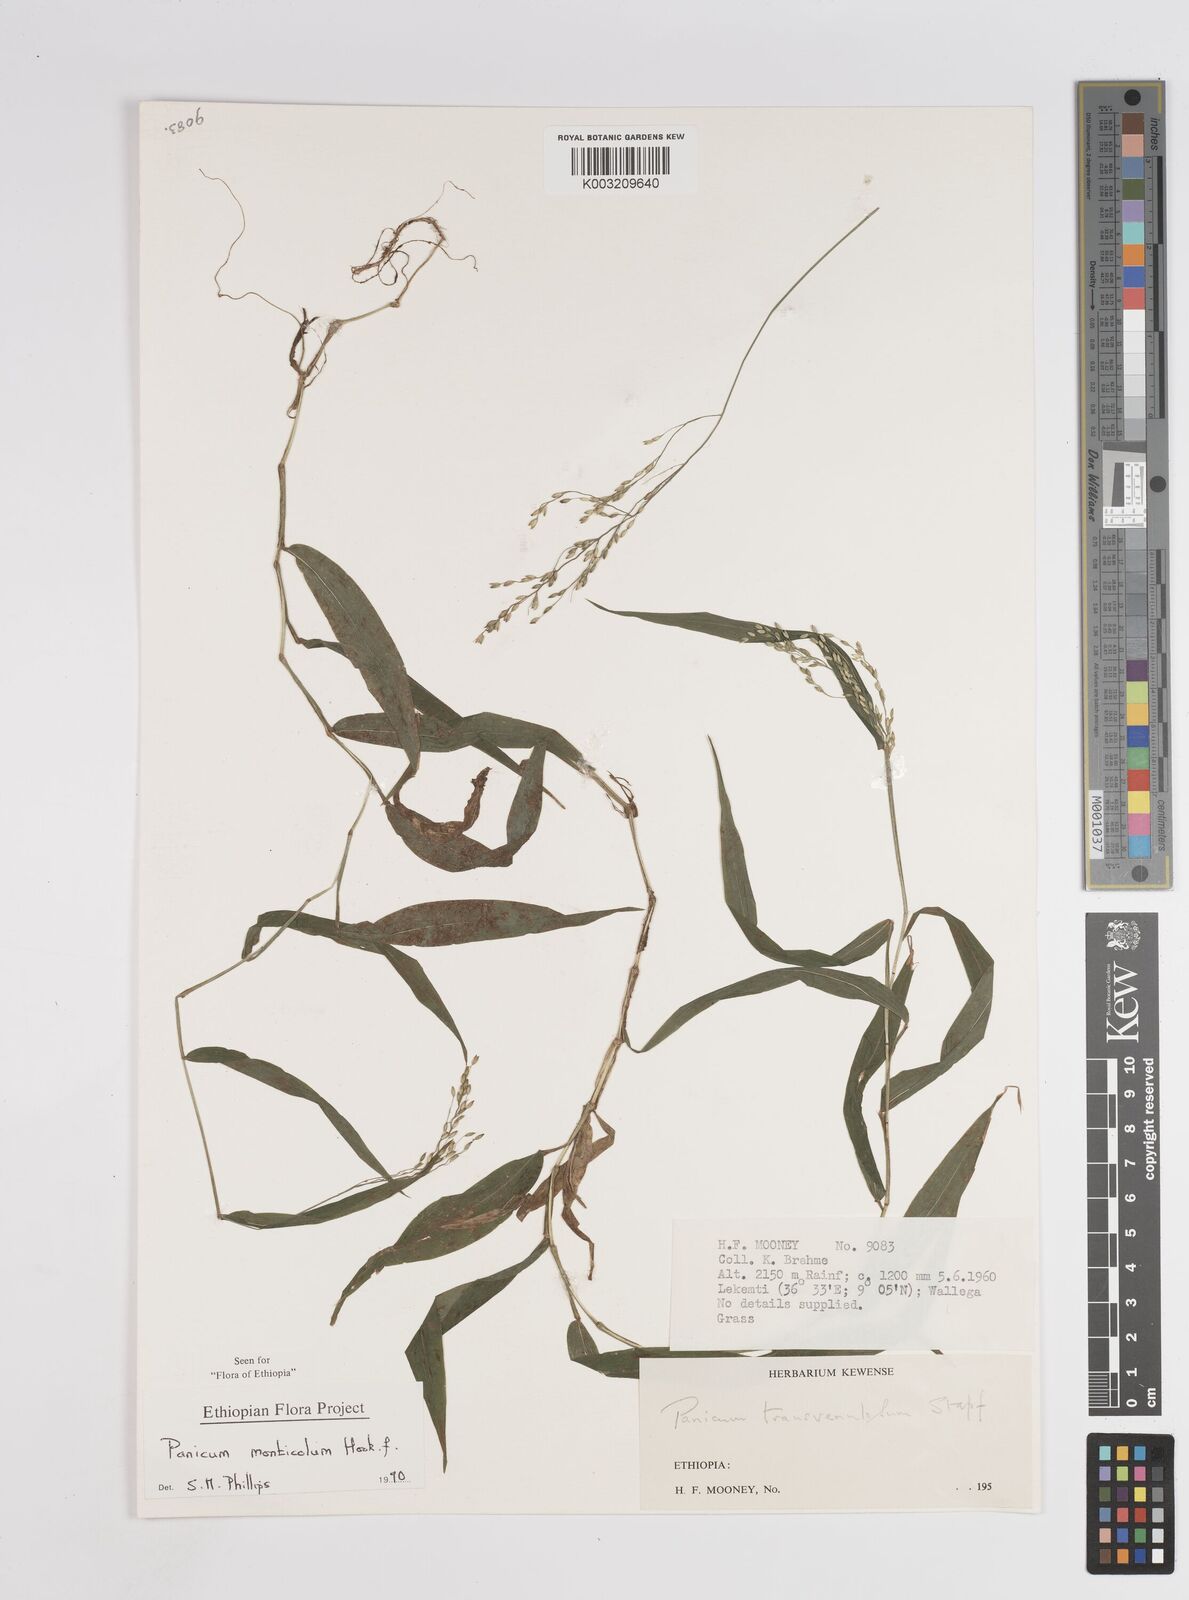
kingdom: Plantae
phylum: Tracheophyta
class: Liliopsida
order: Poales
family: Poaceae
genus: Panicum
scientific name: Panicum monticola
